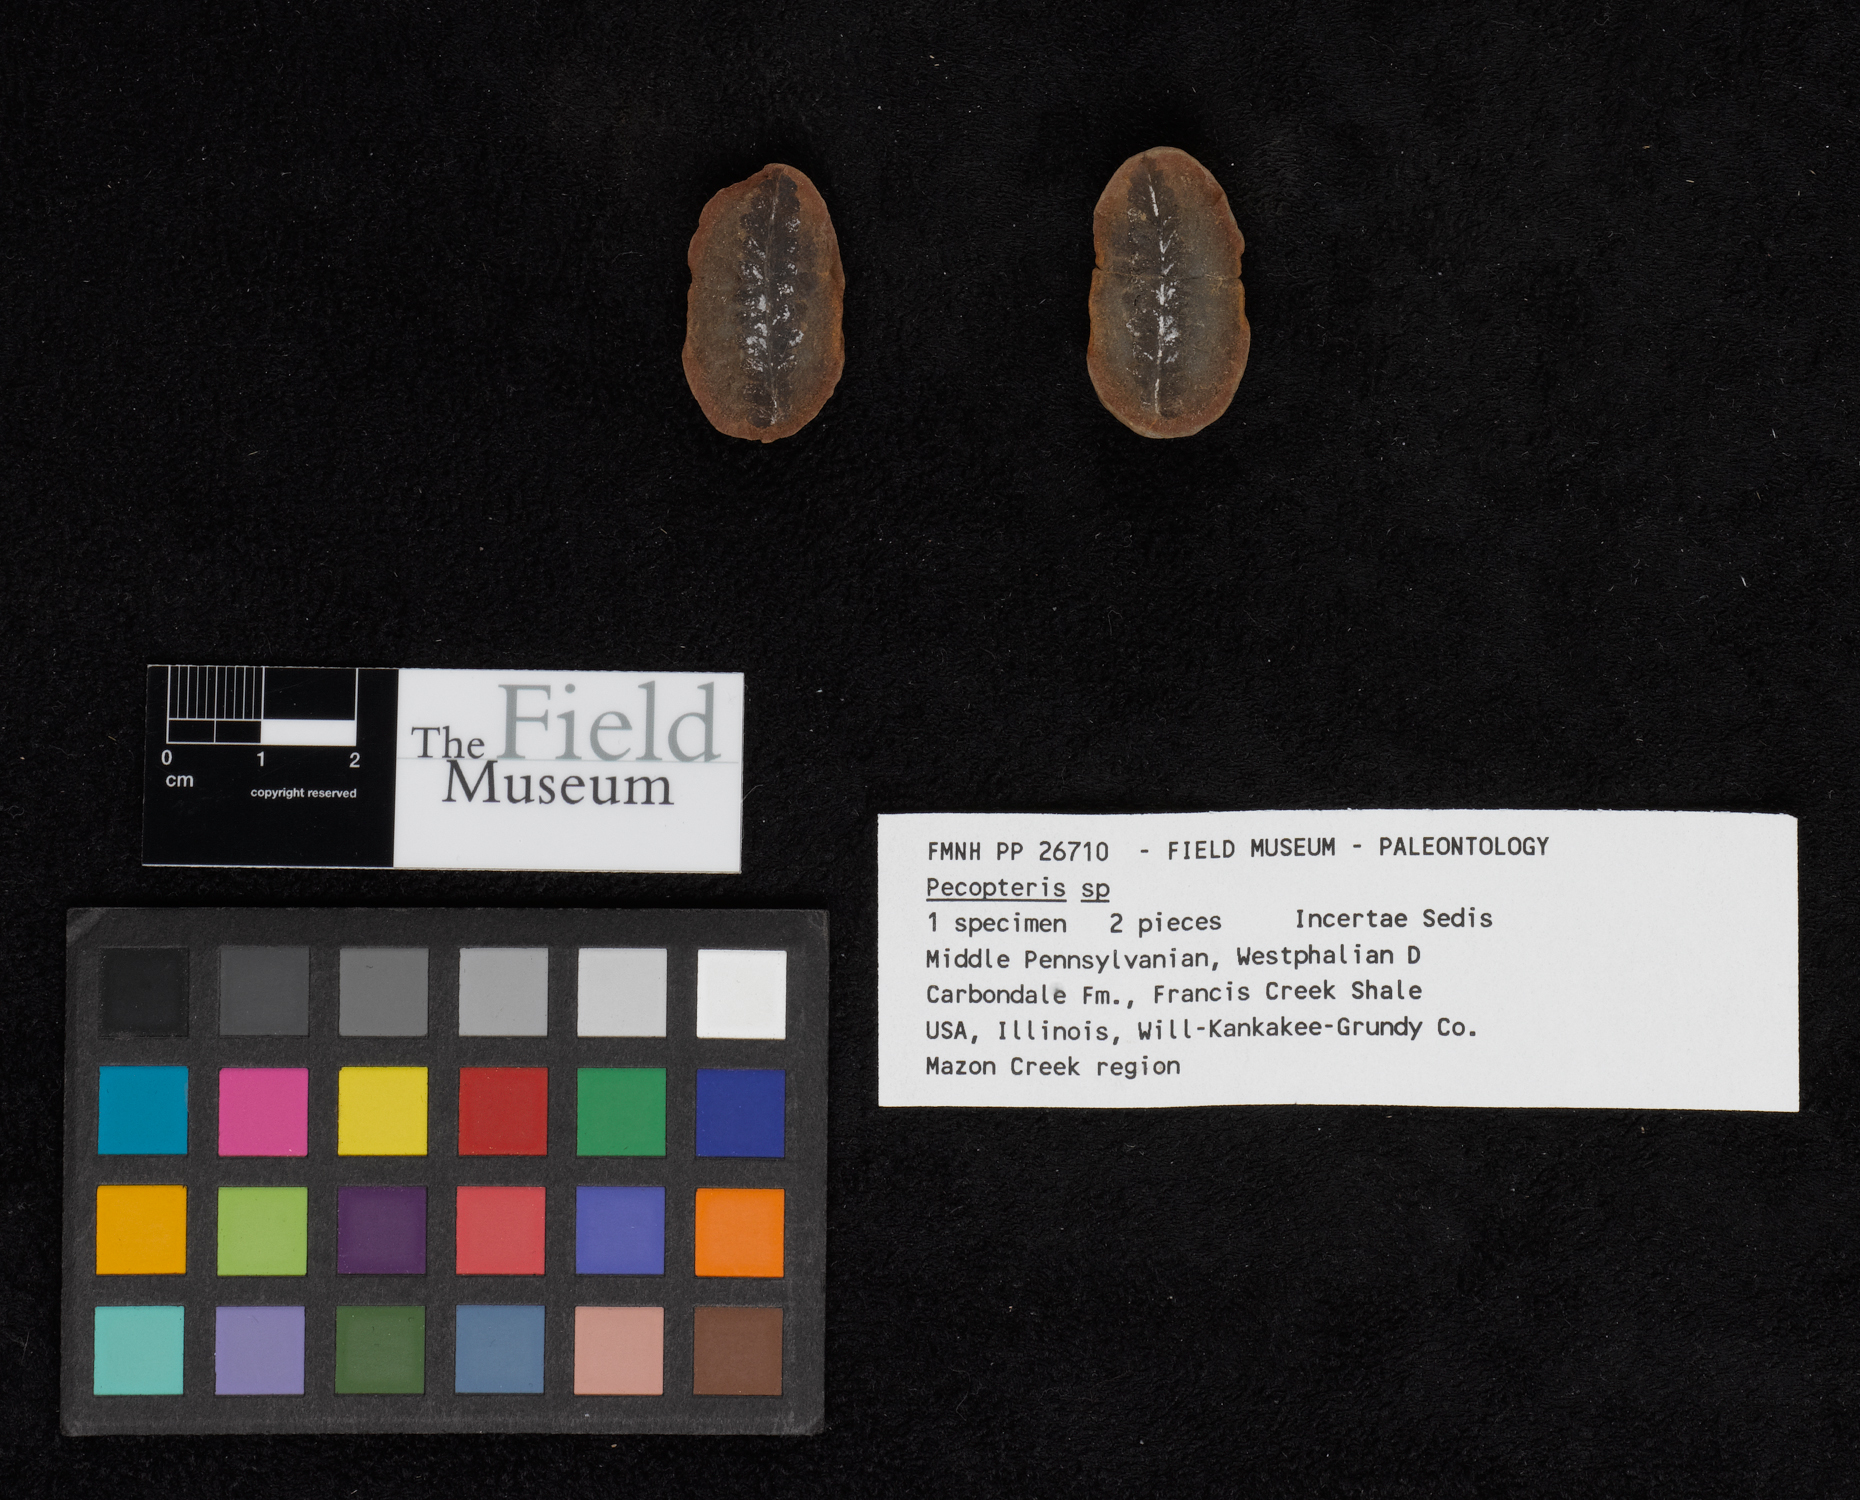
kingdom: Plantae
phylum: Tracheophyta
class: Polypodiopsida
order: Marattiales
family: Asterothecaceae
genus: Pecopteris
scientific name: Pecopteris
